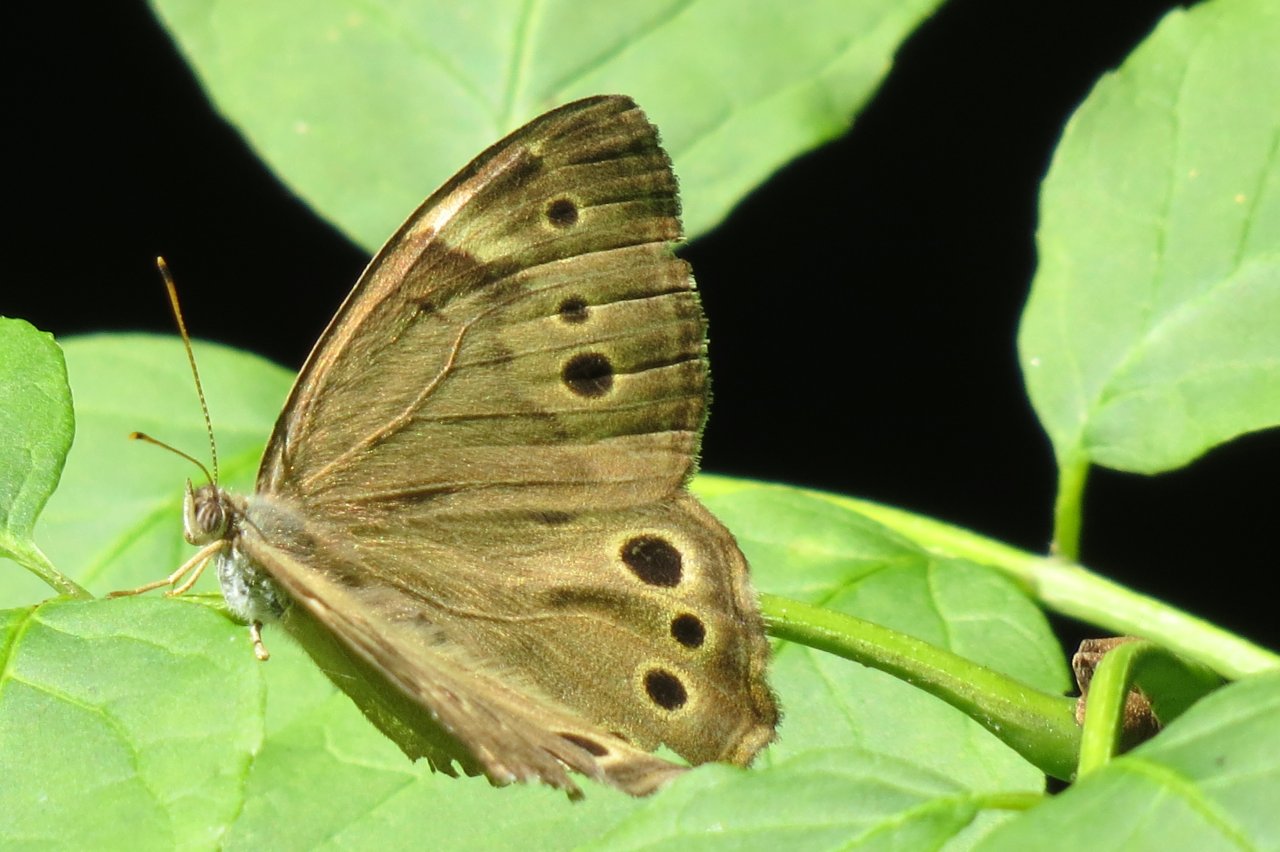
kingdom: Animalia
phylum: Arthropoda
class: Insecta
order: Lepidoptera
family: Nymphalidae
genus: Lethe
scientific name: Lethe anthedon
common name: Northern Pearly-Eye
